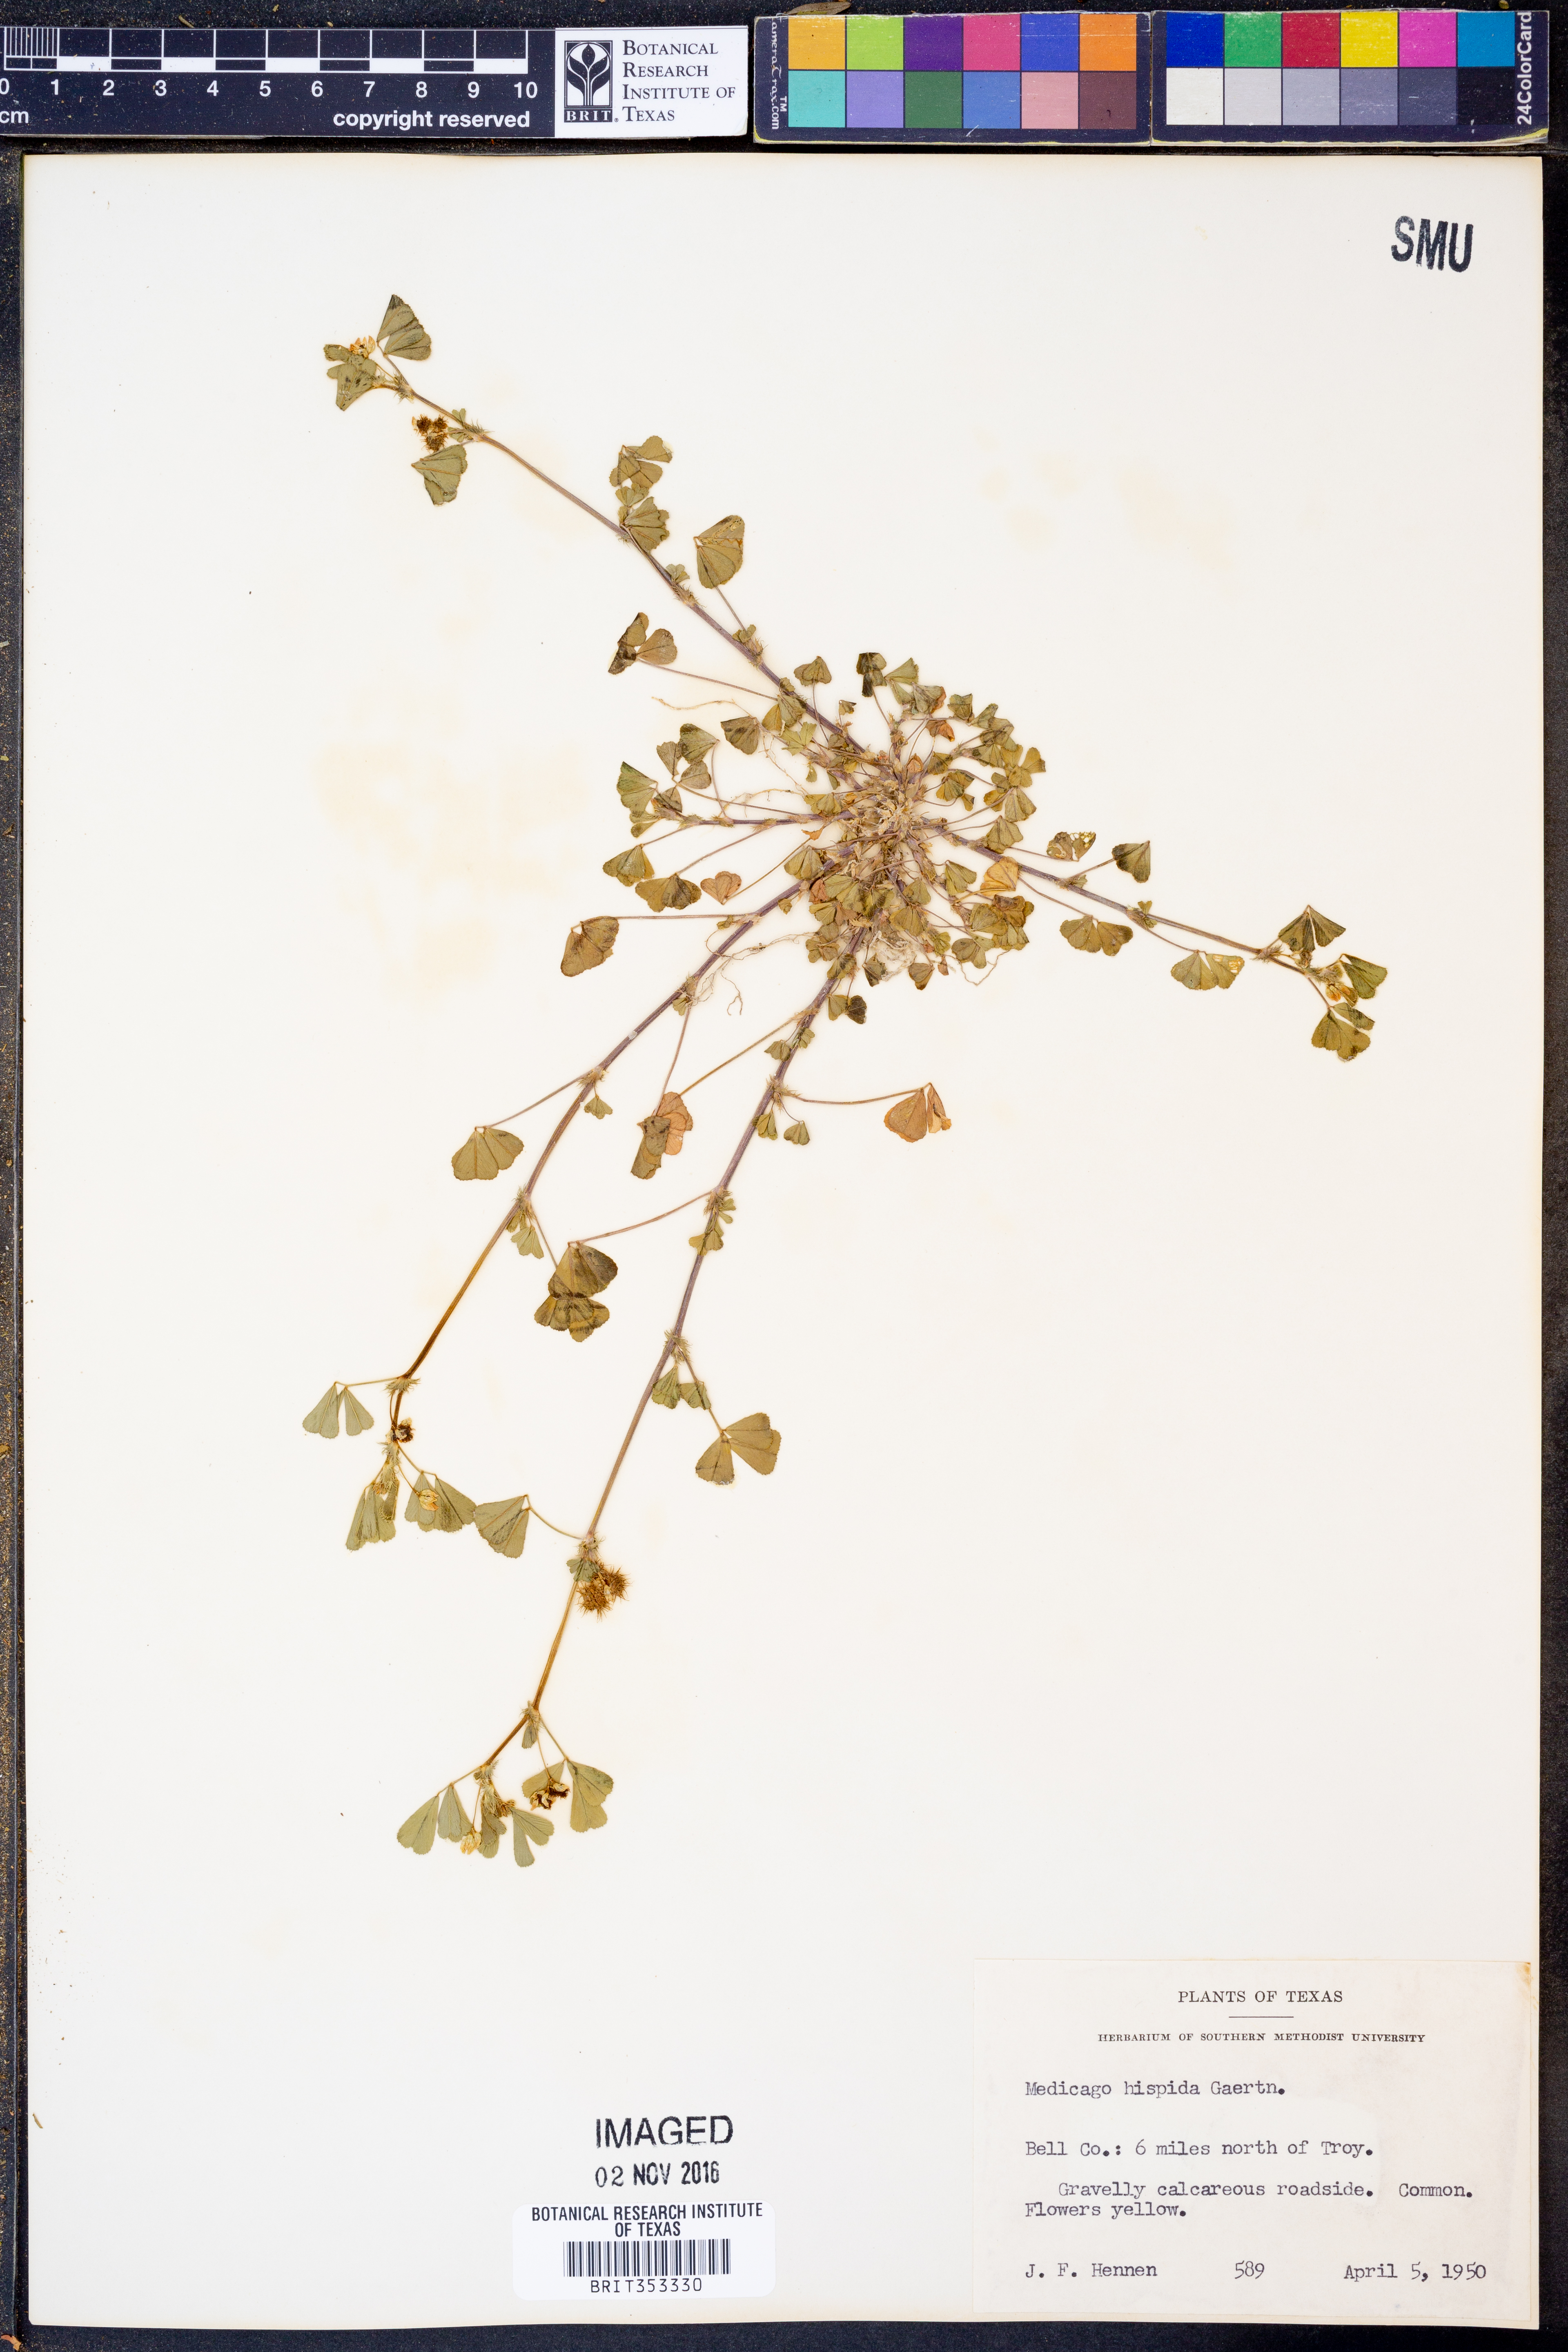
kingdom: Plantae
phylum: Tracheophyta
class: Magnoliopsida
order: Fabales
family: Fabaceae
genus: Medicago
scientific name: Medicago polymorpha
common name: Burclover
